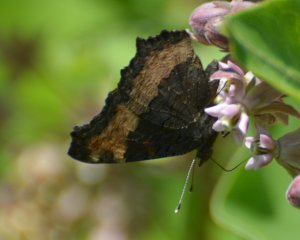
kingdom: Animalia
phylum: Arthropoda
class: Insecta
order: Lepidoptera
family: Nymphalidae
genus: Aglais
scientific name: Aglais milberti
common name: Milbert's Tortoiseshell
